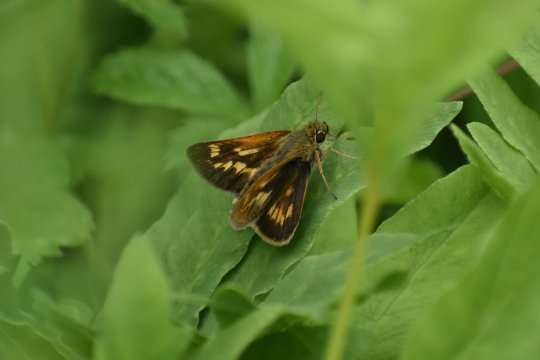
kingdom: Animalia
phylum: Arthropoda
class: Insecta
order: Lepidoptera
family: Hesperiidae
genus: Polites
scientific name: Polites
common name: Long Dash Skipper
